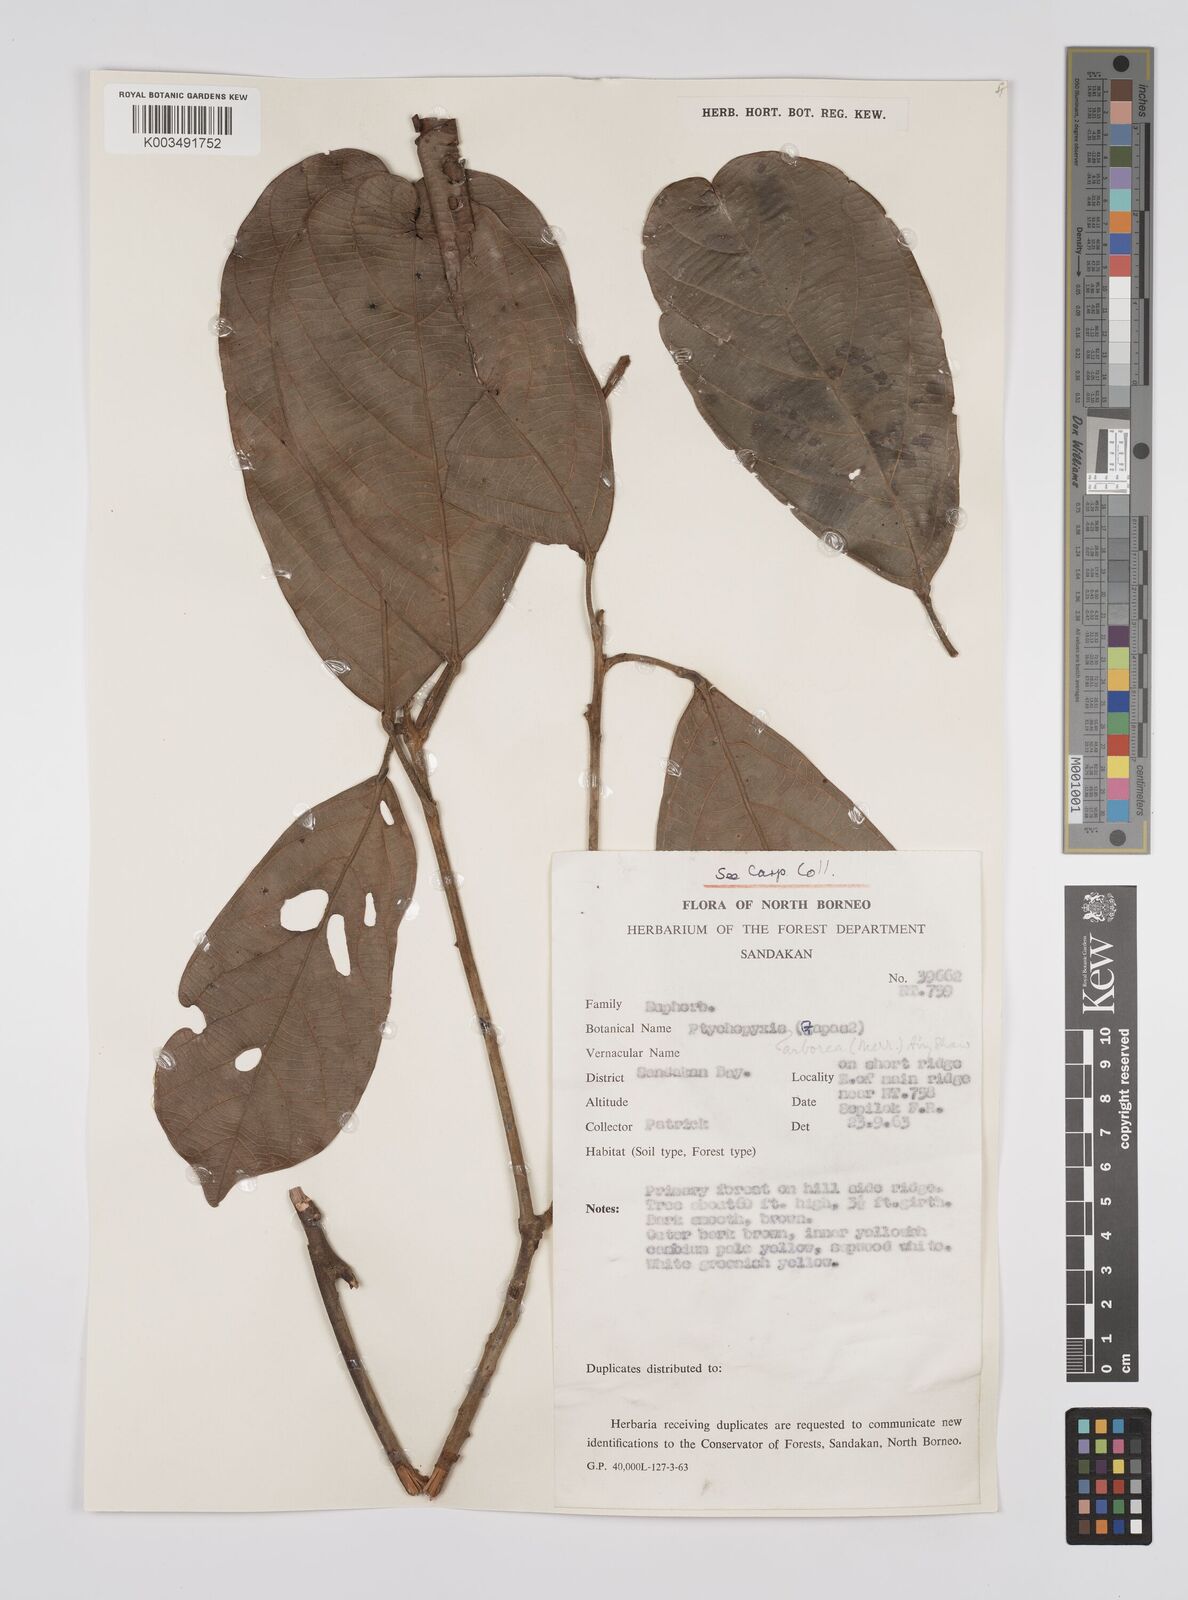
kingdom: Plantae
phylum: Tracheophyta
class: Magnoliopsida
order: Malpighiales
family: Euphorbiaceae
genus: Ptychopyxis
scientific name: Ptychopyxis arborea
